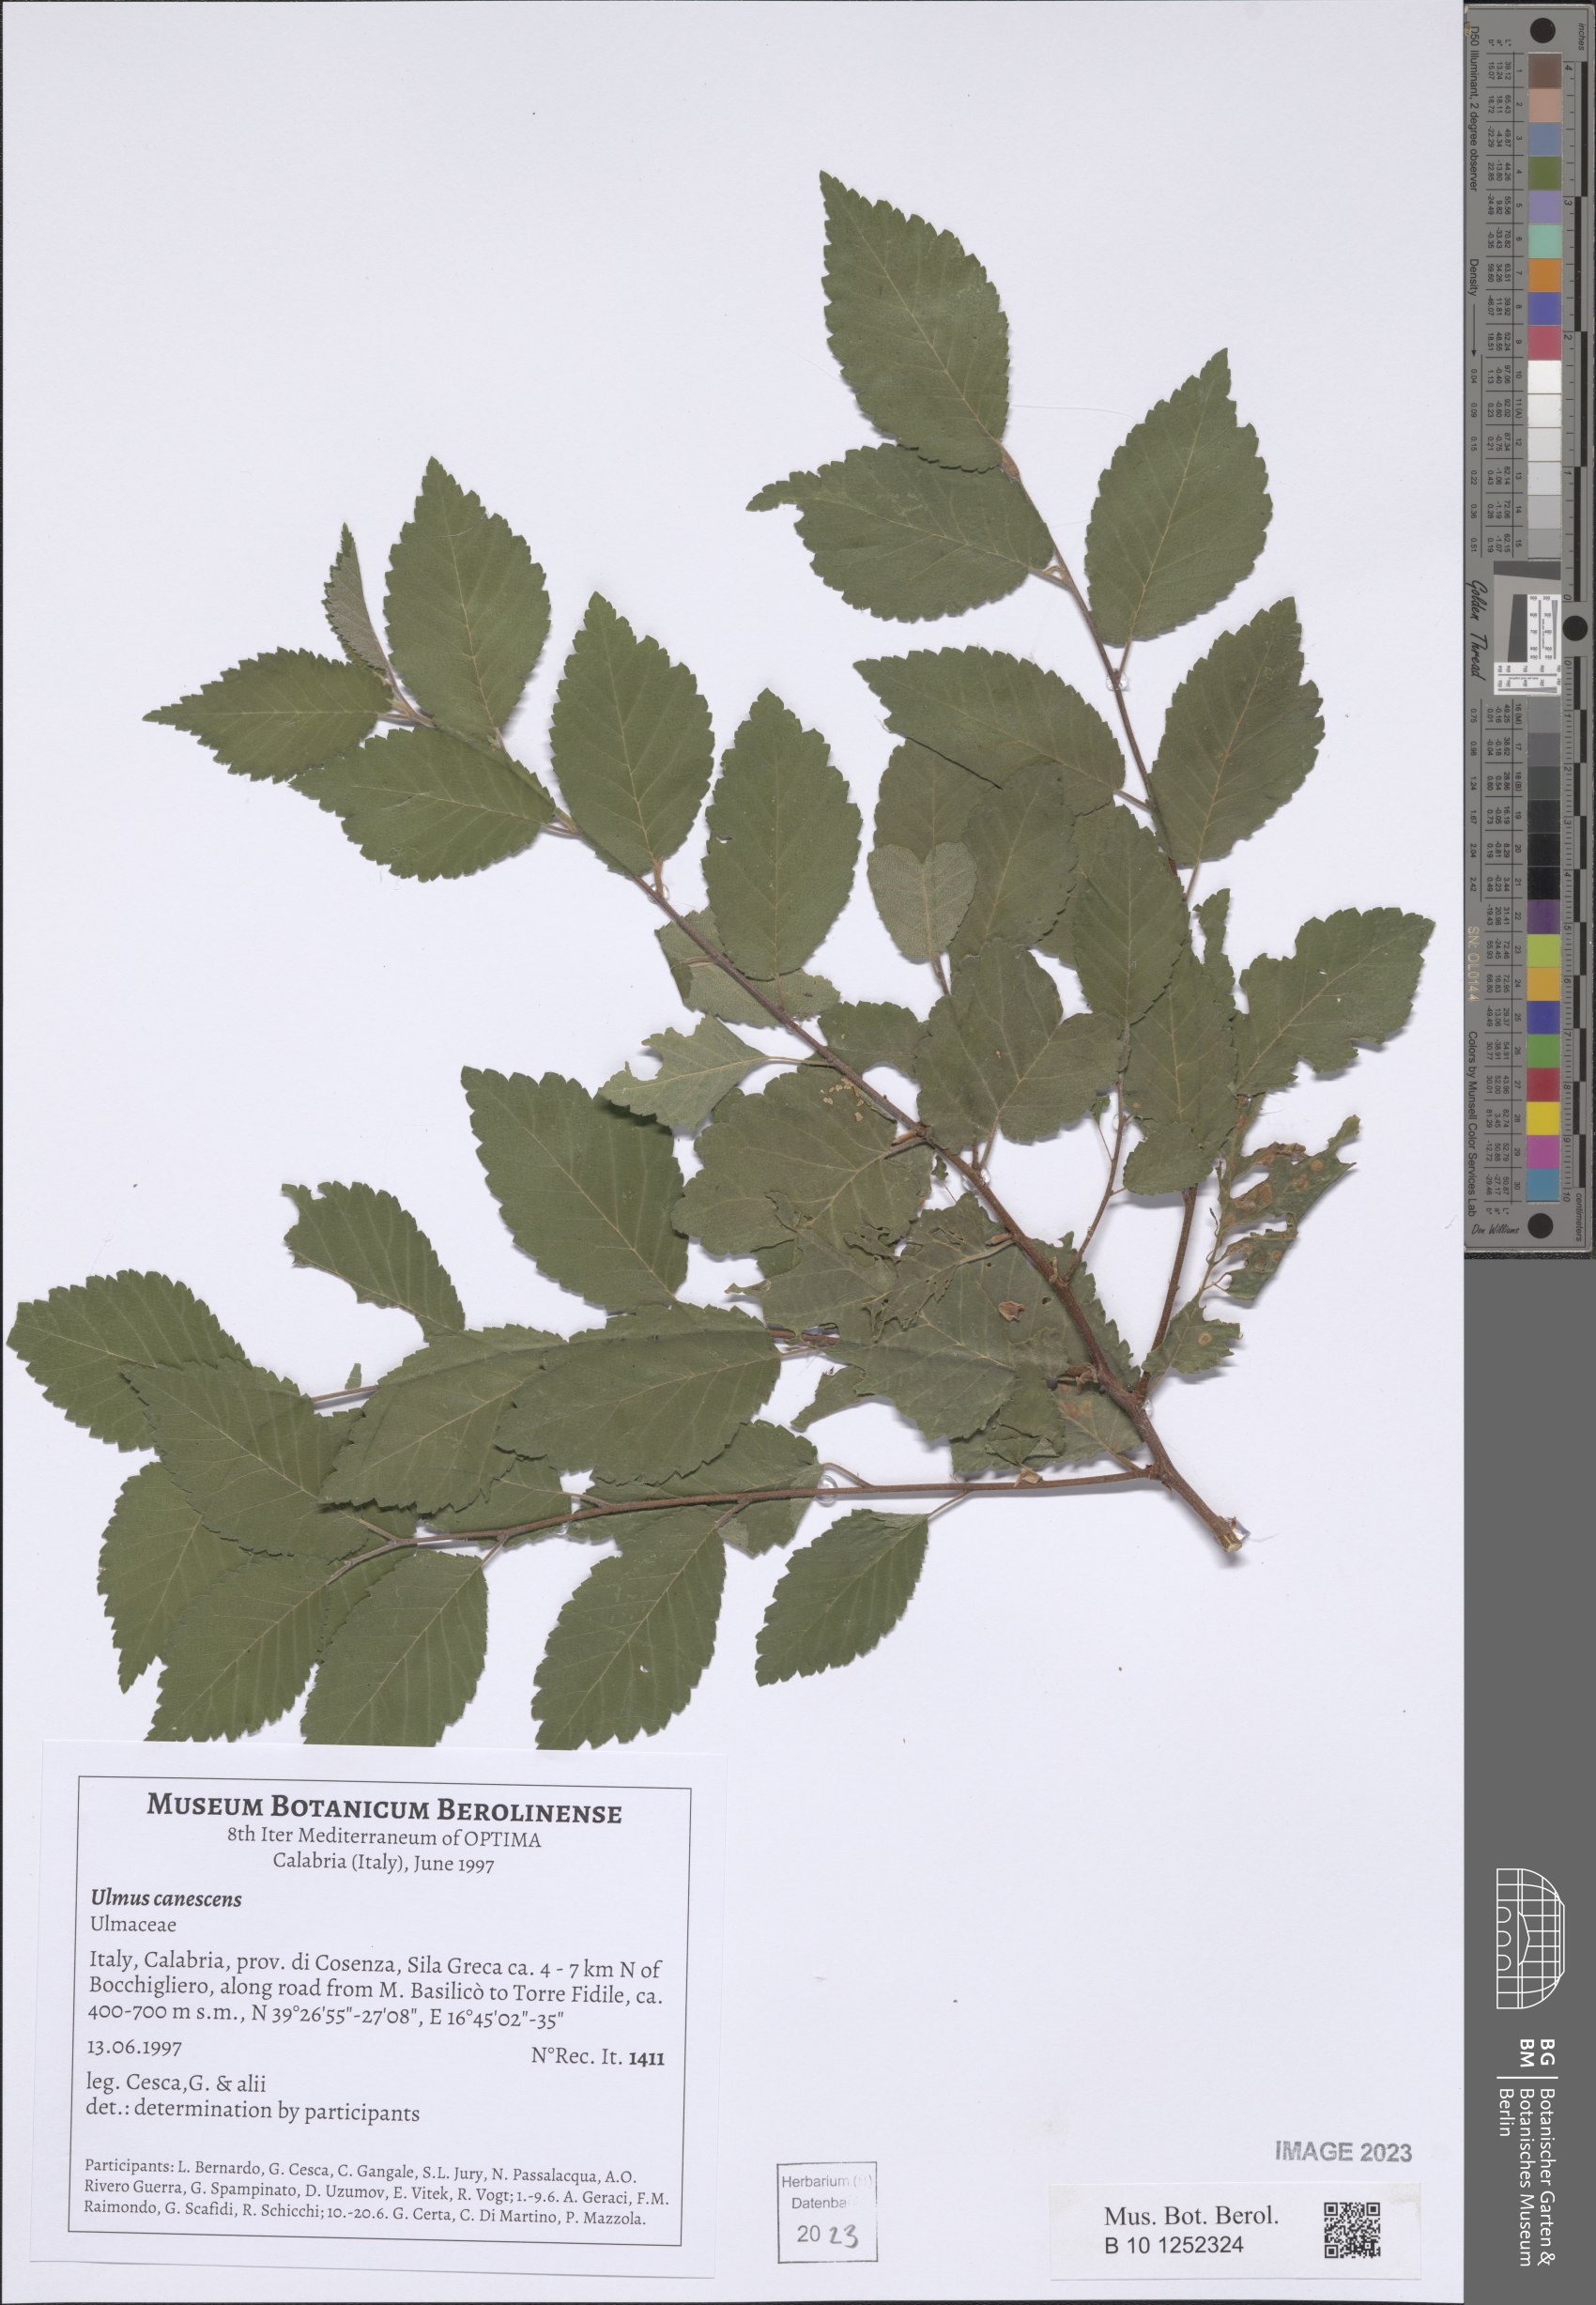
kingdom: Plantae
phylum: Tracheophyta
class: Magnoliopsida
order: Rosales
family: Ulmaceae
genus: Ulmus
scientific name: Ulmus minor
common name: Small-leaved elm
